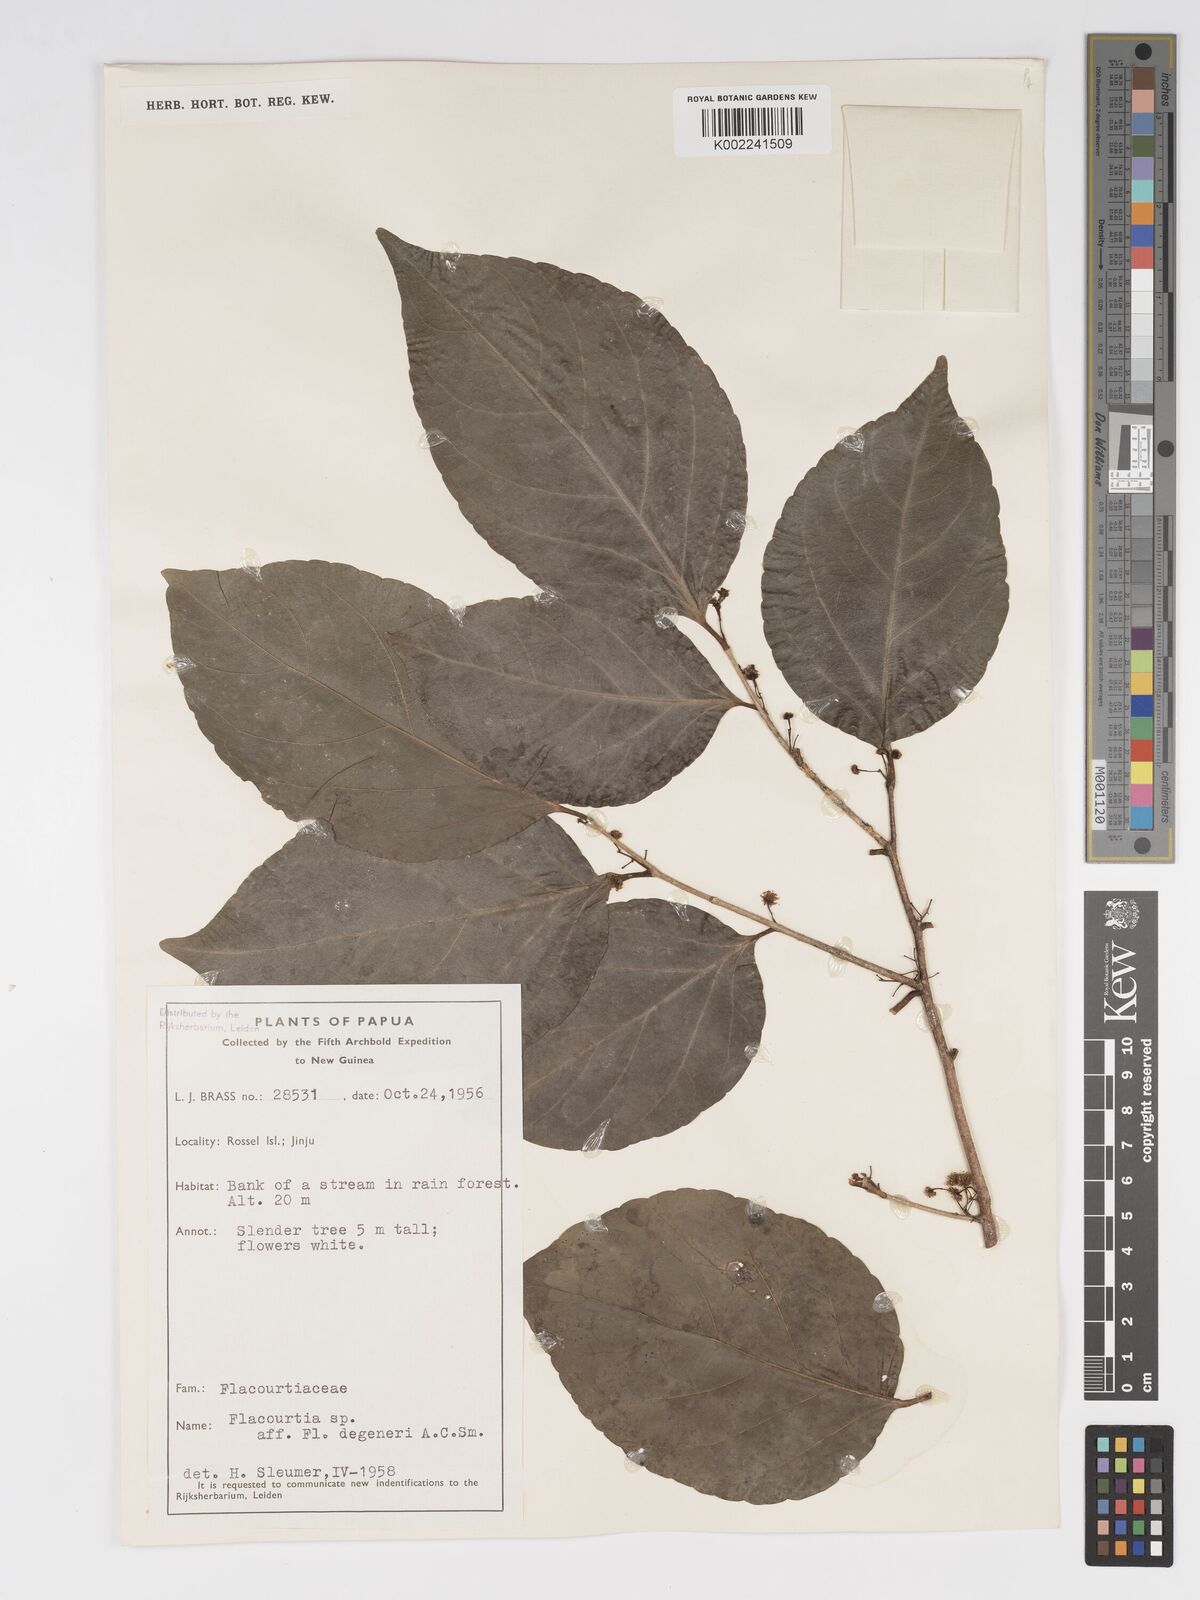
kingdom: Plantae
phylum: Tracheophyta
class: Magnoliopsida
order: Malpighiales
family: Salicaceae
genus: Flacourtia
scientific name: Flacourtia degeneri
